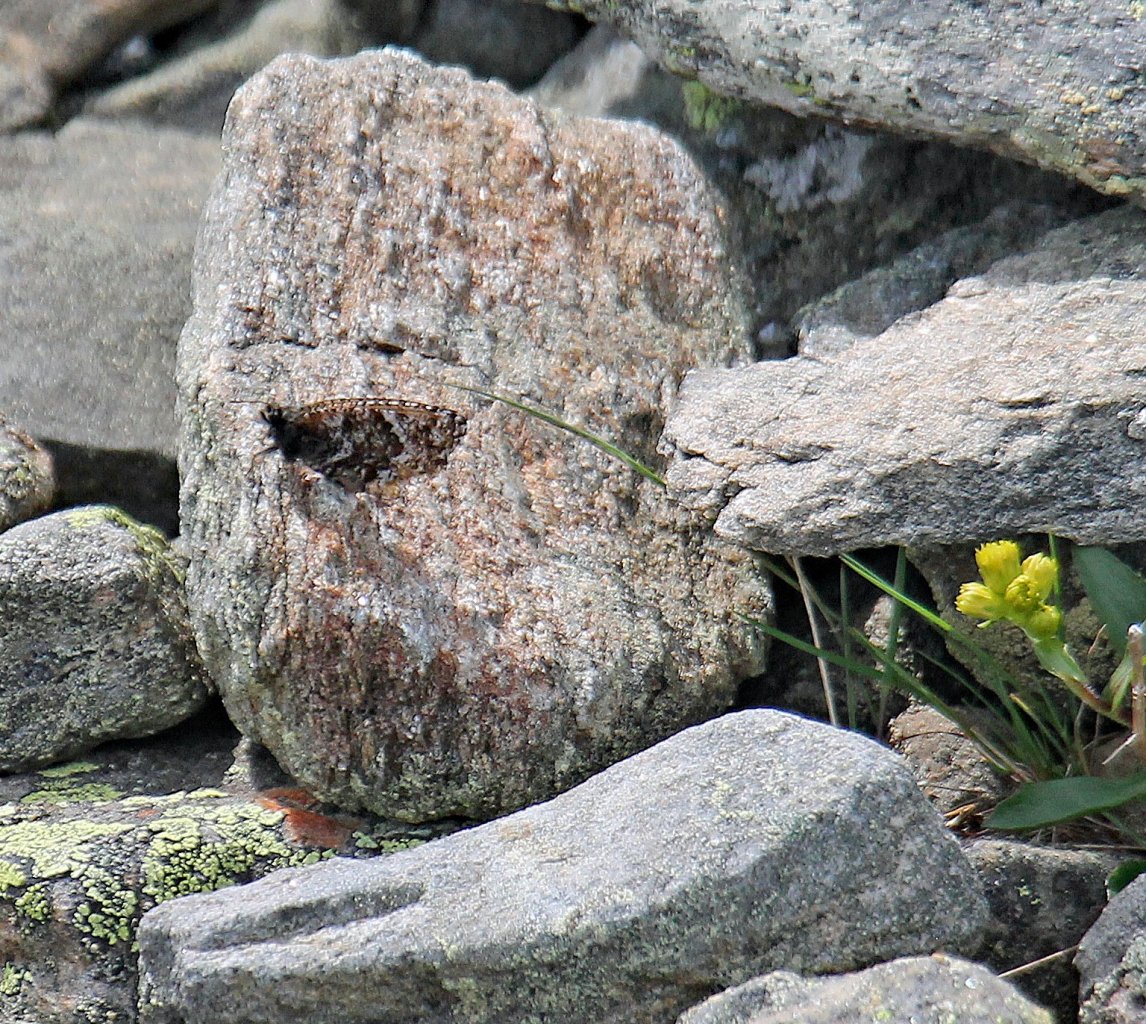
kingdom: Animalia
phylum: Arthropoda
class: Insecta
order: Lepidoptera
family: Nymphalidae
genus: Oeneis
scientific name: Oeneis melissa
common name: Melissa Arctic
